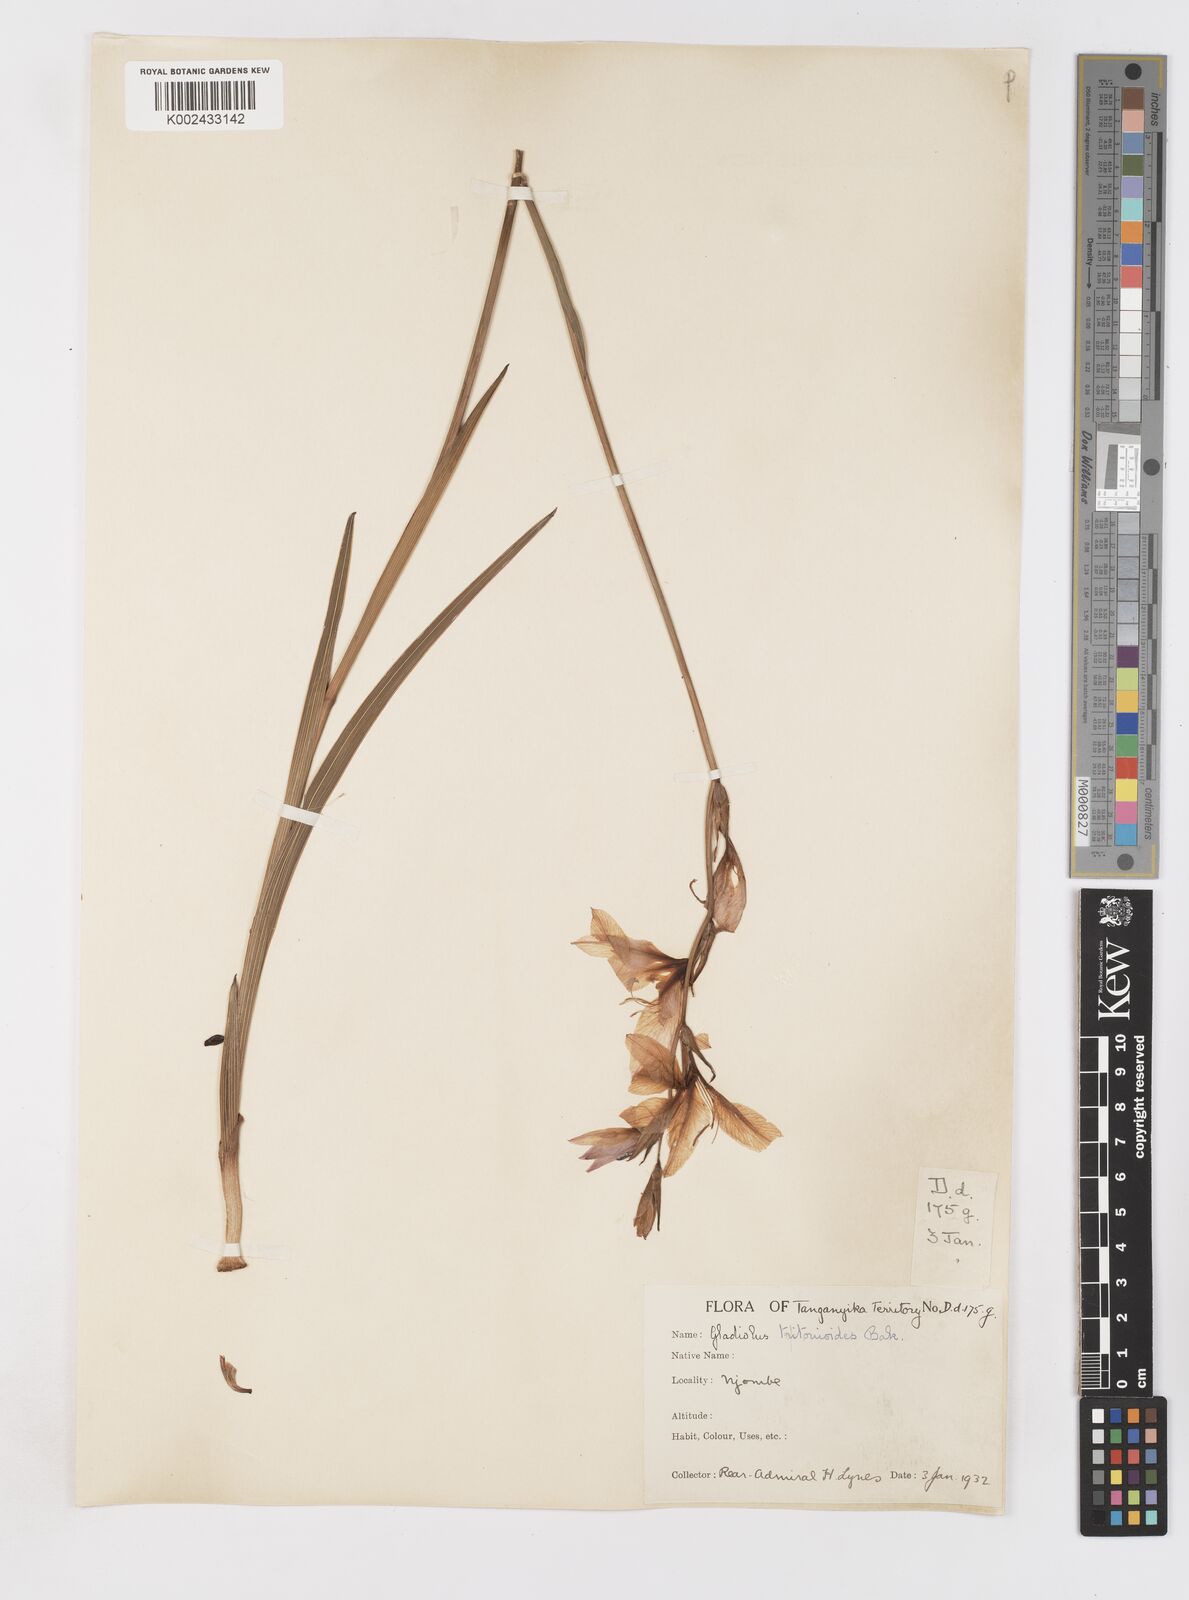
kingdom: Plantae
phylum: Tracheophyta
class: Liliopsida
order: Asparagales
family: Iridaceae
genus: Gladiolus
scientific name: Gladiolus laxiflorus
